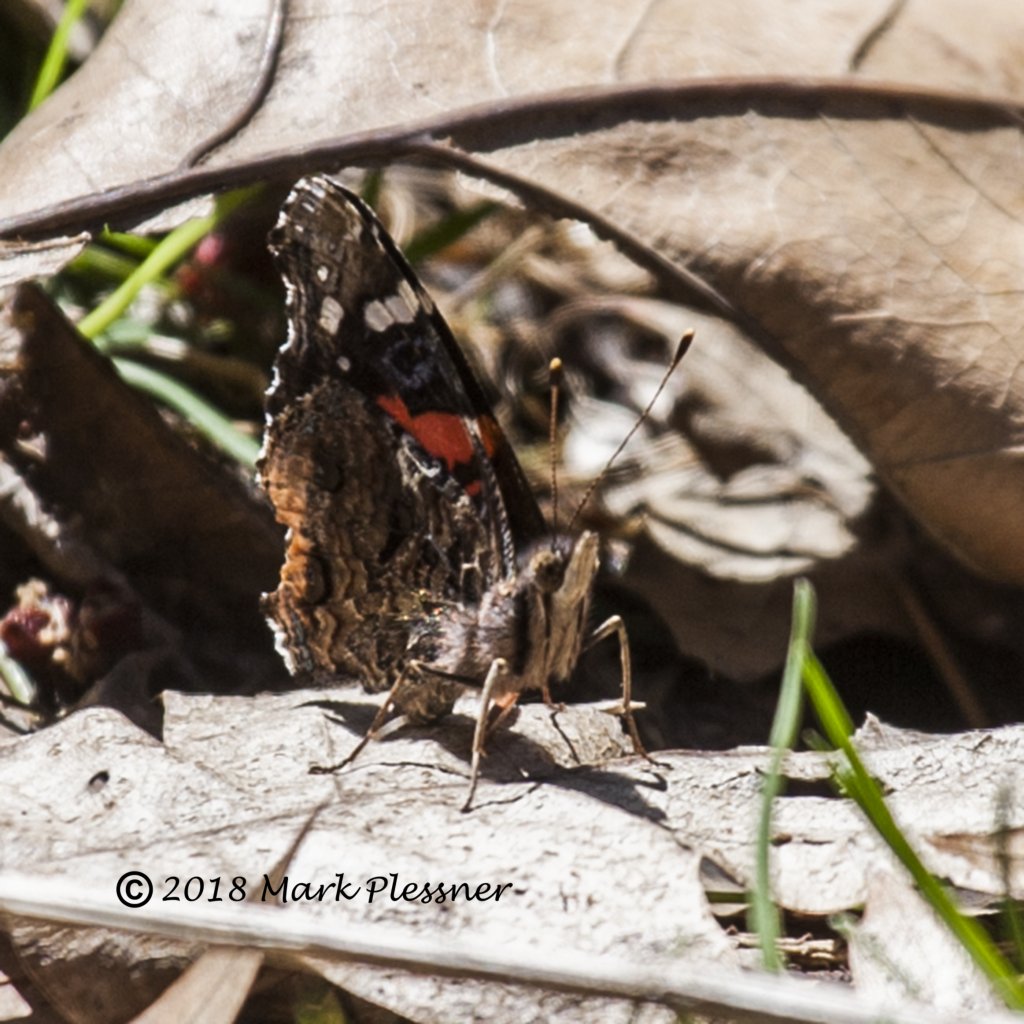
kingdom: Animalia
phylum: Arthropoda
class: Insecta
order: Lepidoptera
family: Nymphalidae
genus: Vanessa
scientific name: Vanessa atalanta
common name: Red Admiral
